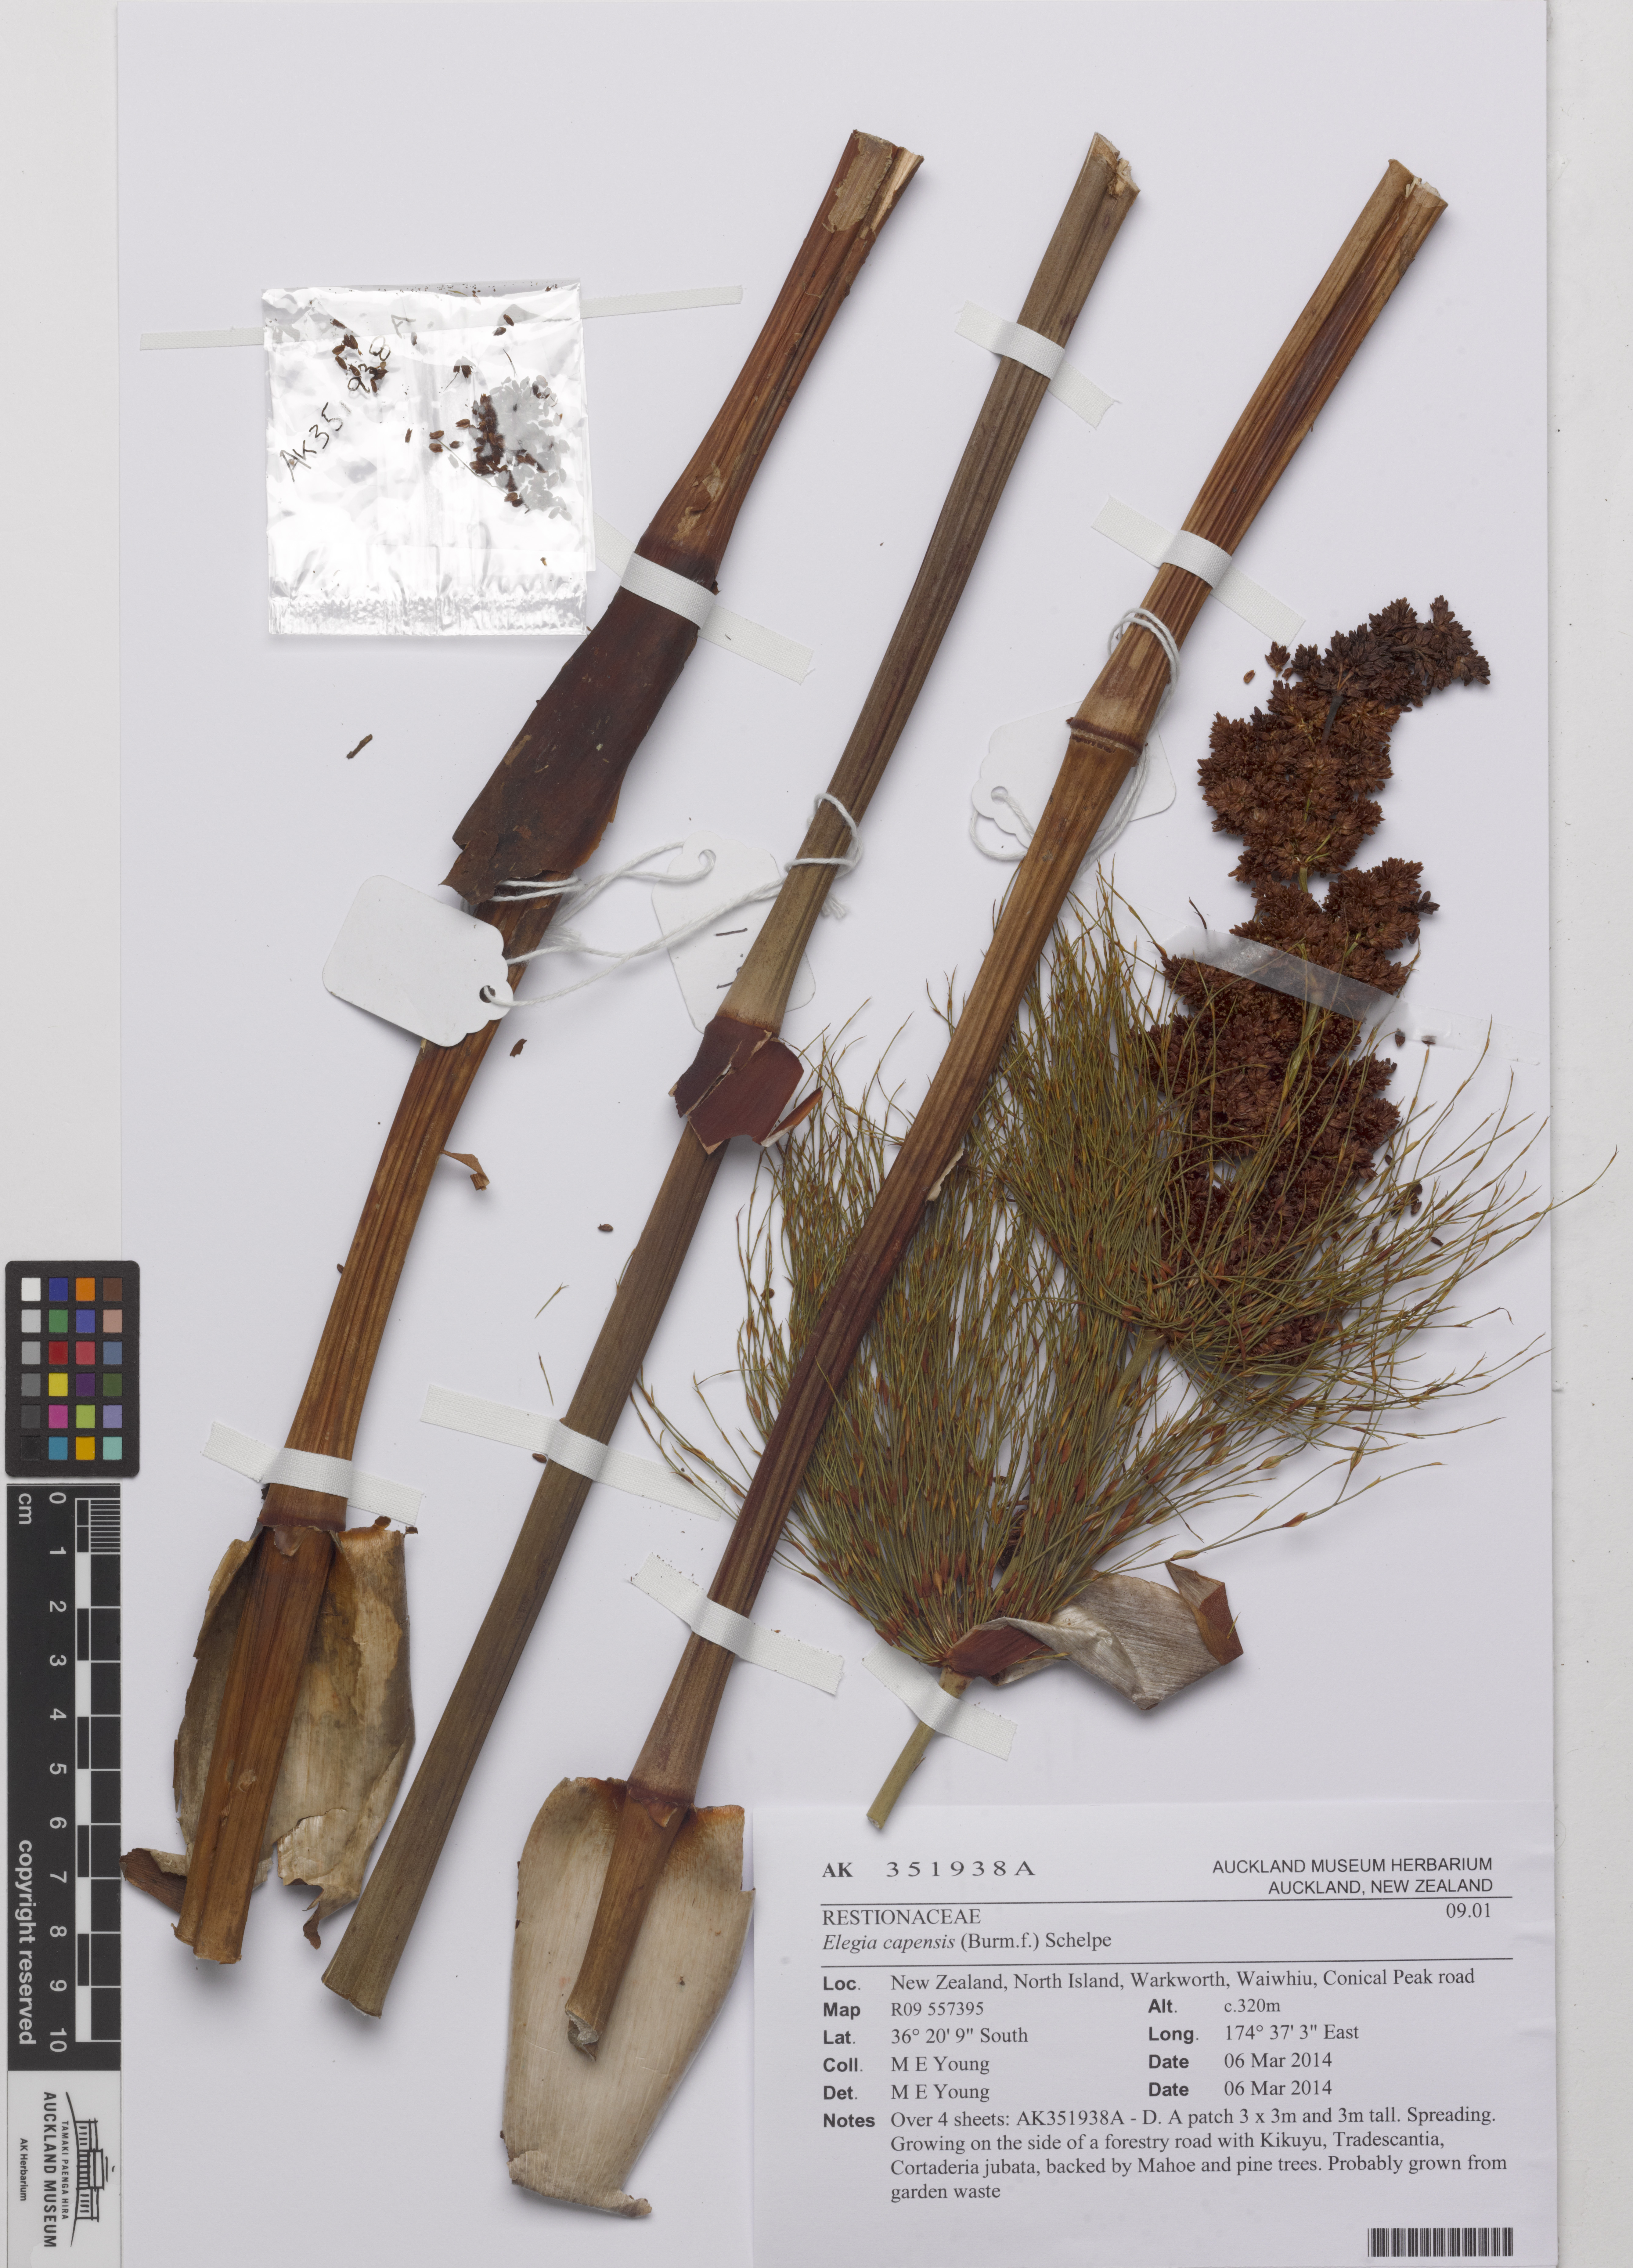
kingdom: Plantae
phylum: Tracheophyta
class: Liliopsida
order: Poales
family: Restionaceae
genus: Elegia
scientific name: Elegia capensis
